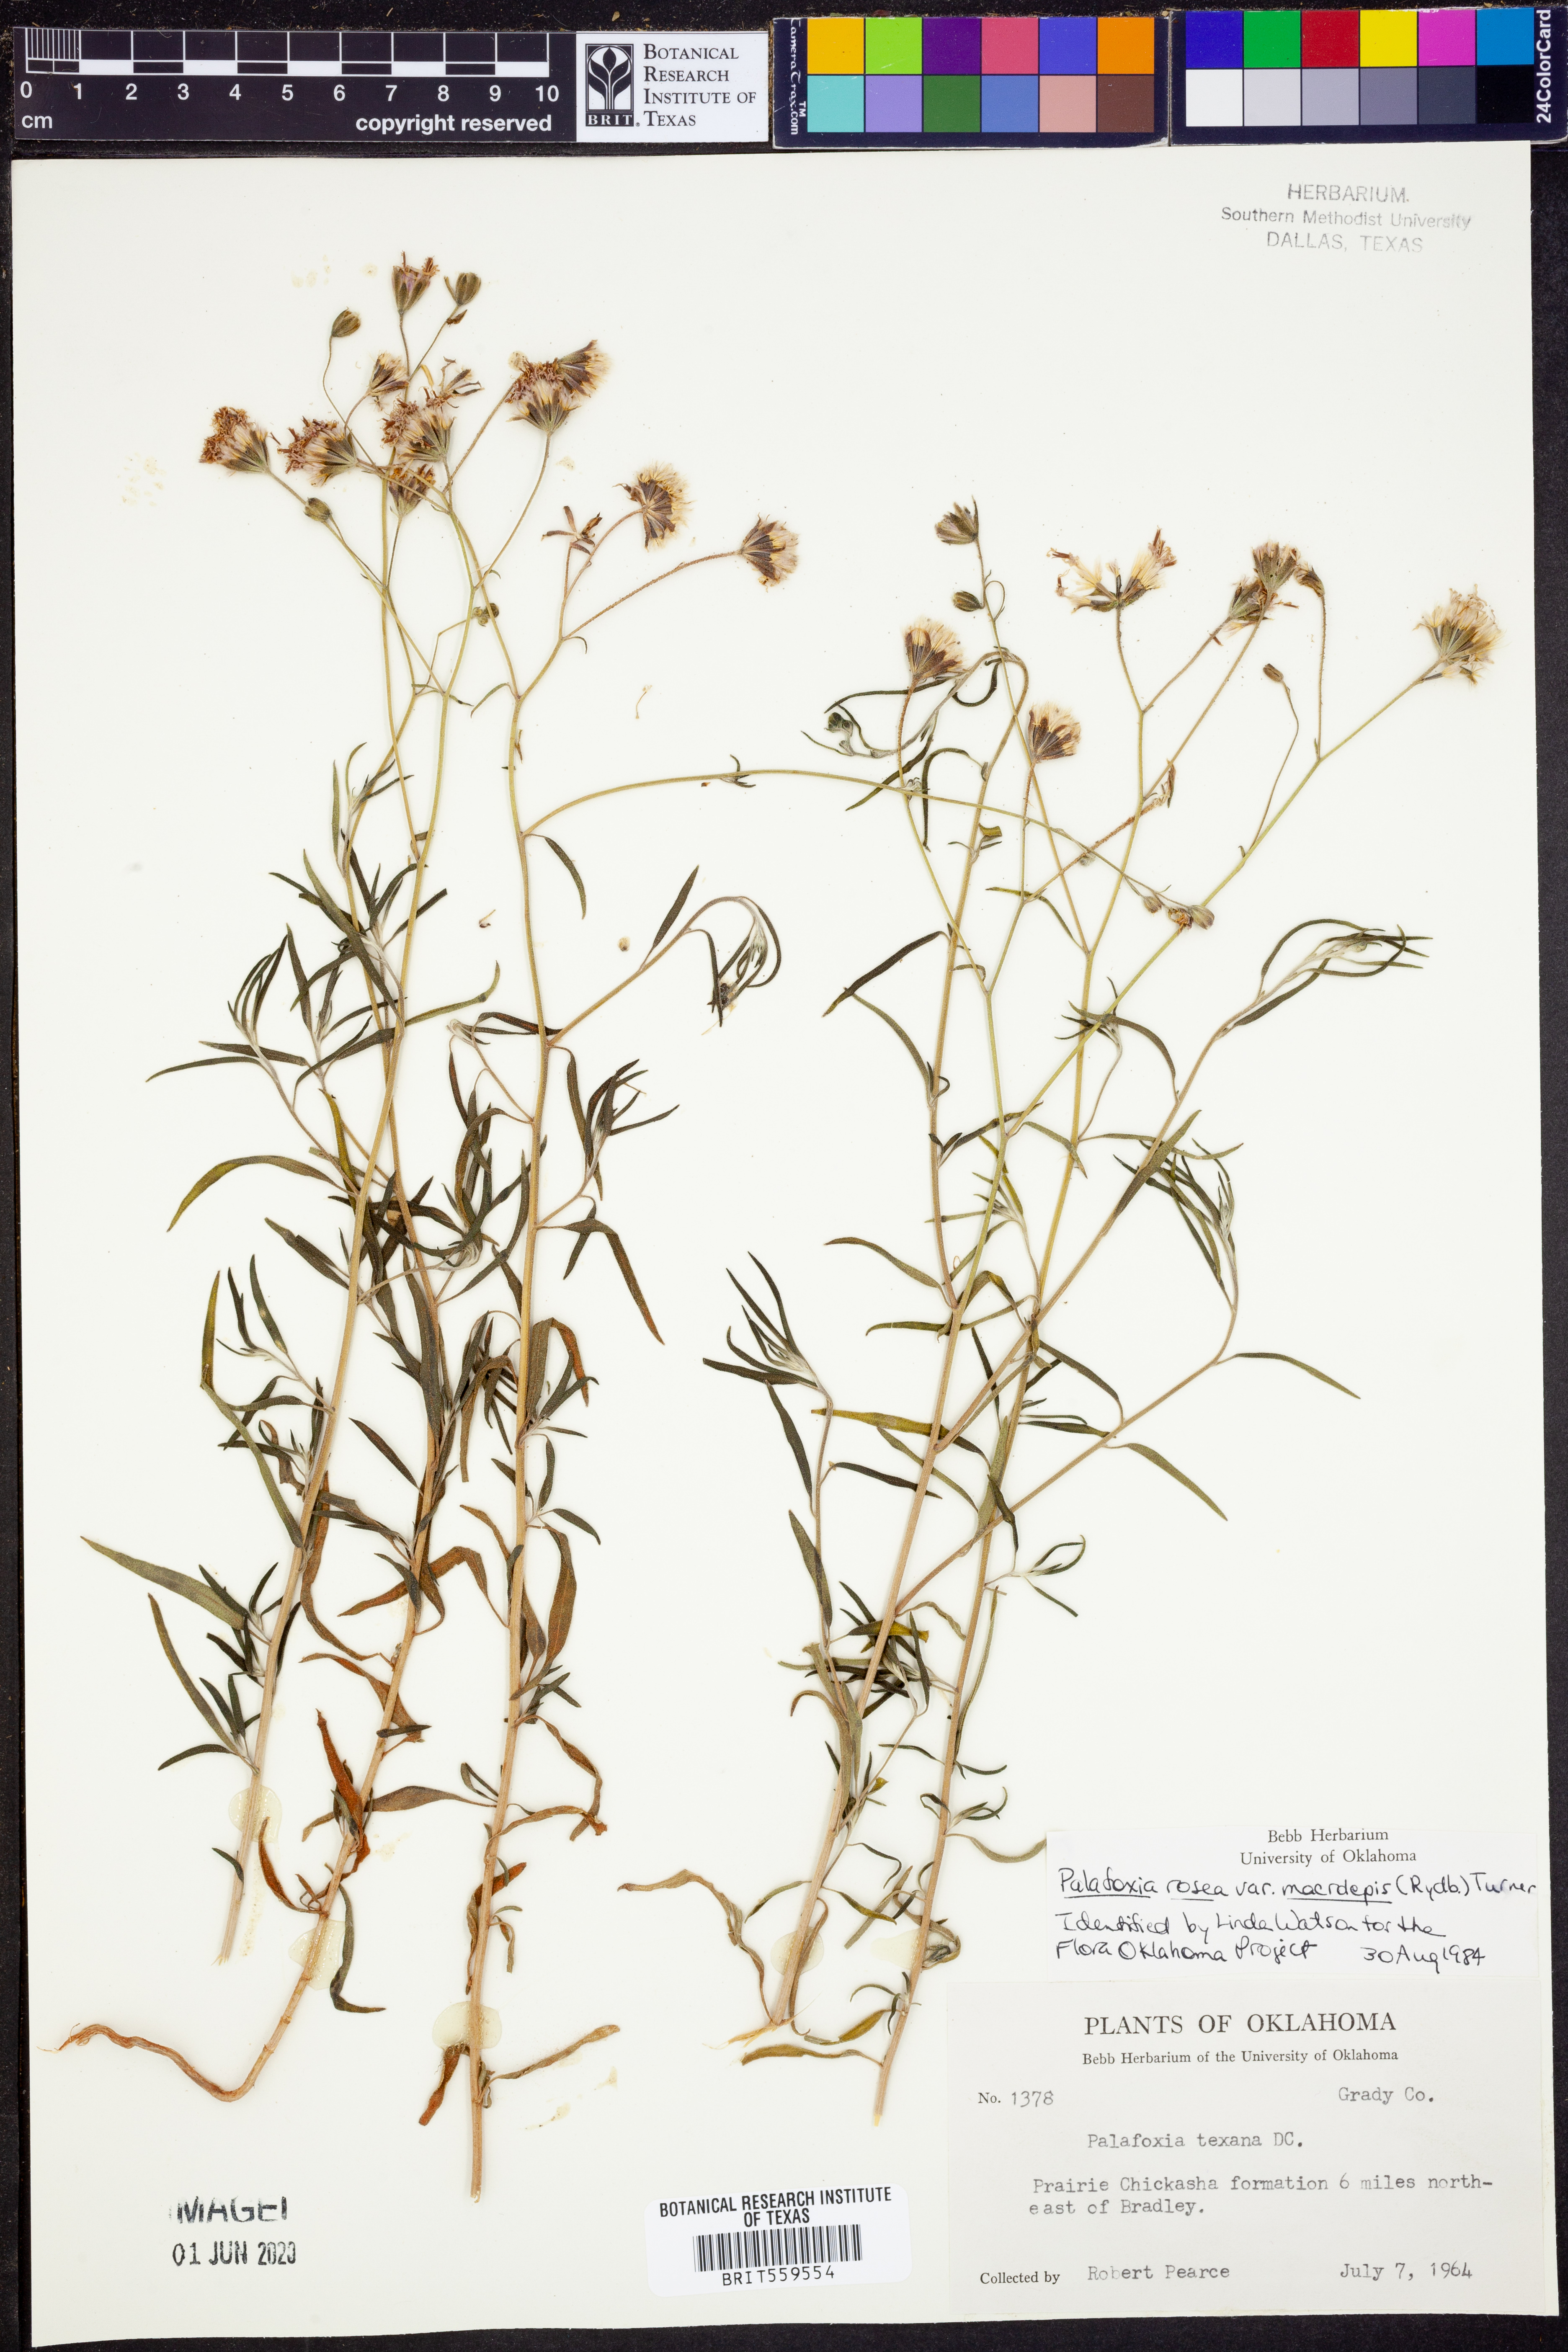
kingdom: Plantae
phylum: Tracheophyta
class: Magnoliopsida
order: Asterales
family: Asteraceae
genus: Palafoxia
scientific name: Palafoxia rosea
